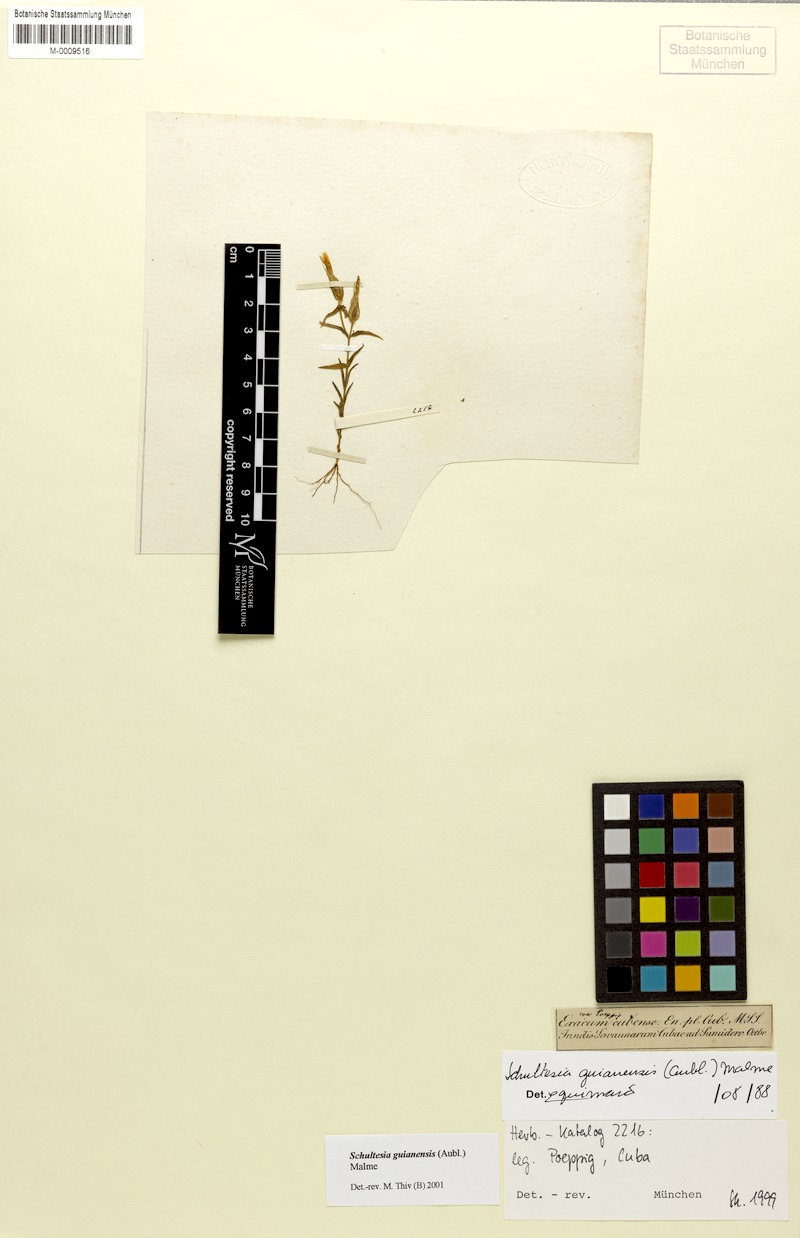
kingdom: Plantae
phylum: Tracheophyta
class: Magnoliopsida
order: Gentianales
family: Gentianaceae
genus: Schultesia
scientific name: Schultesia guianensis
